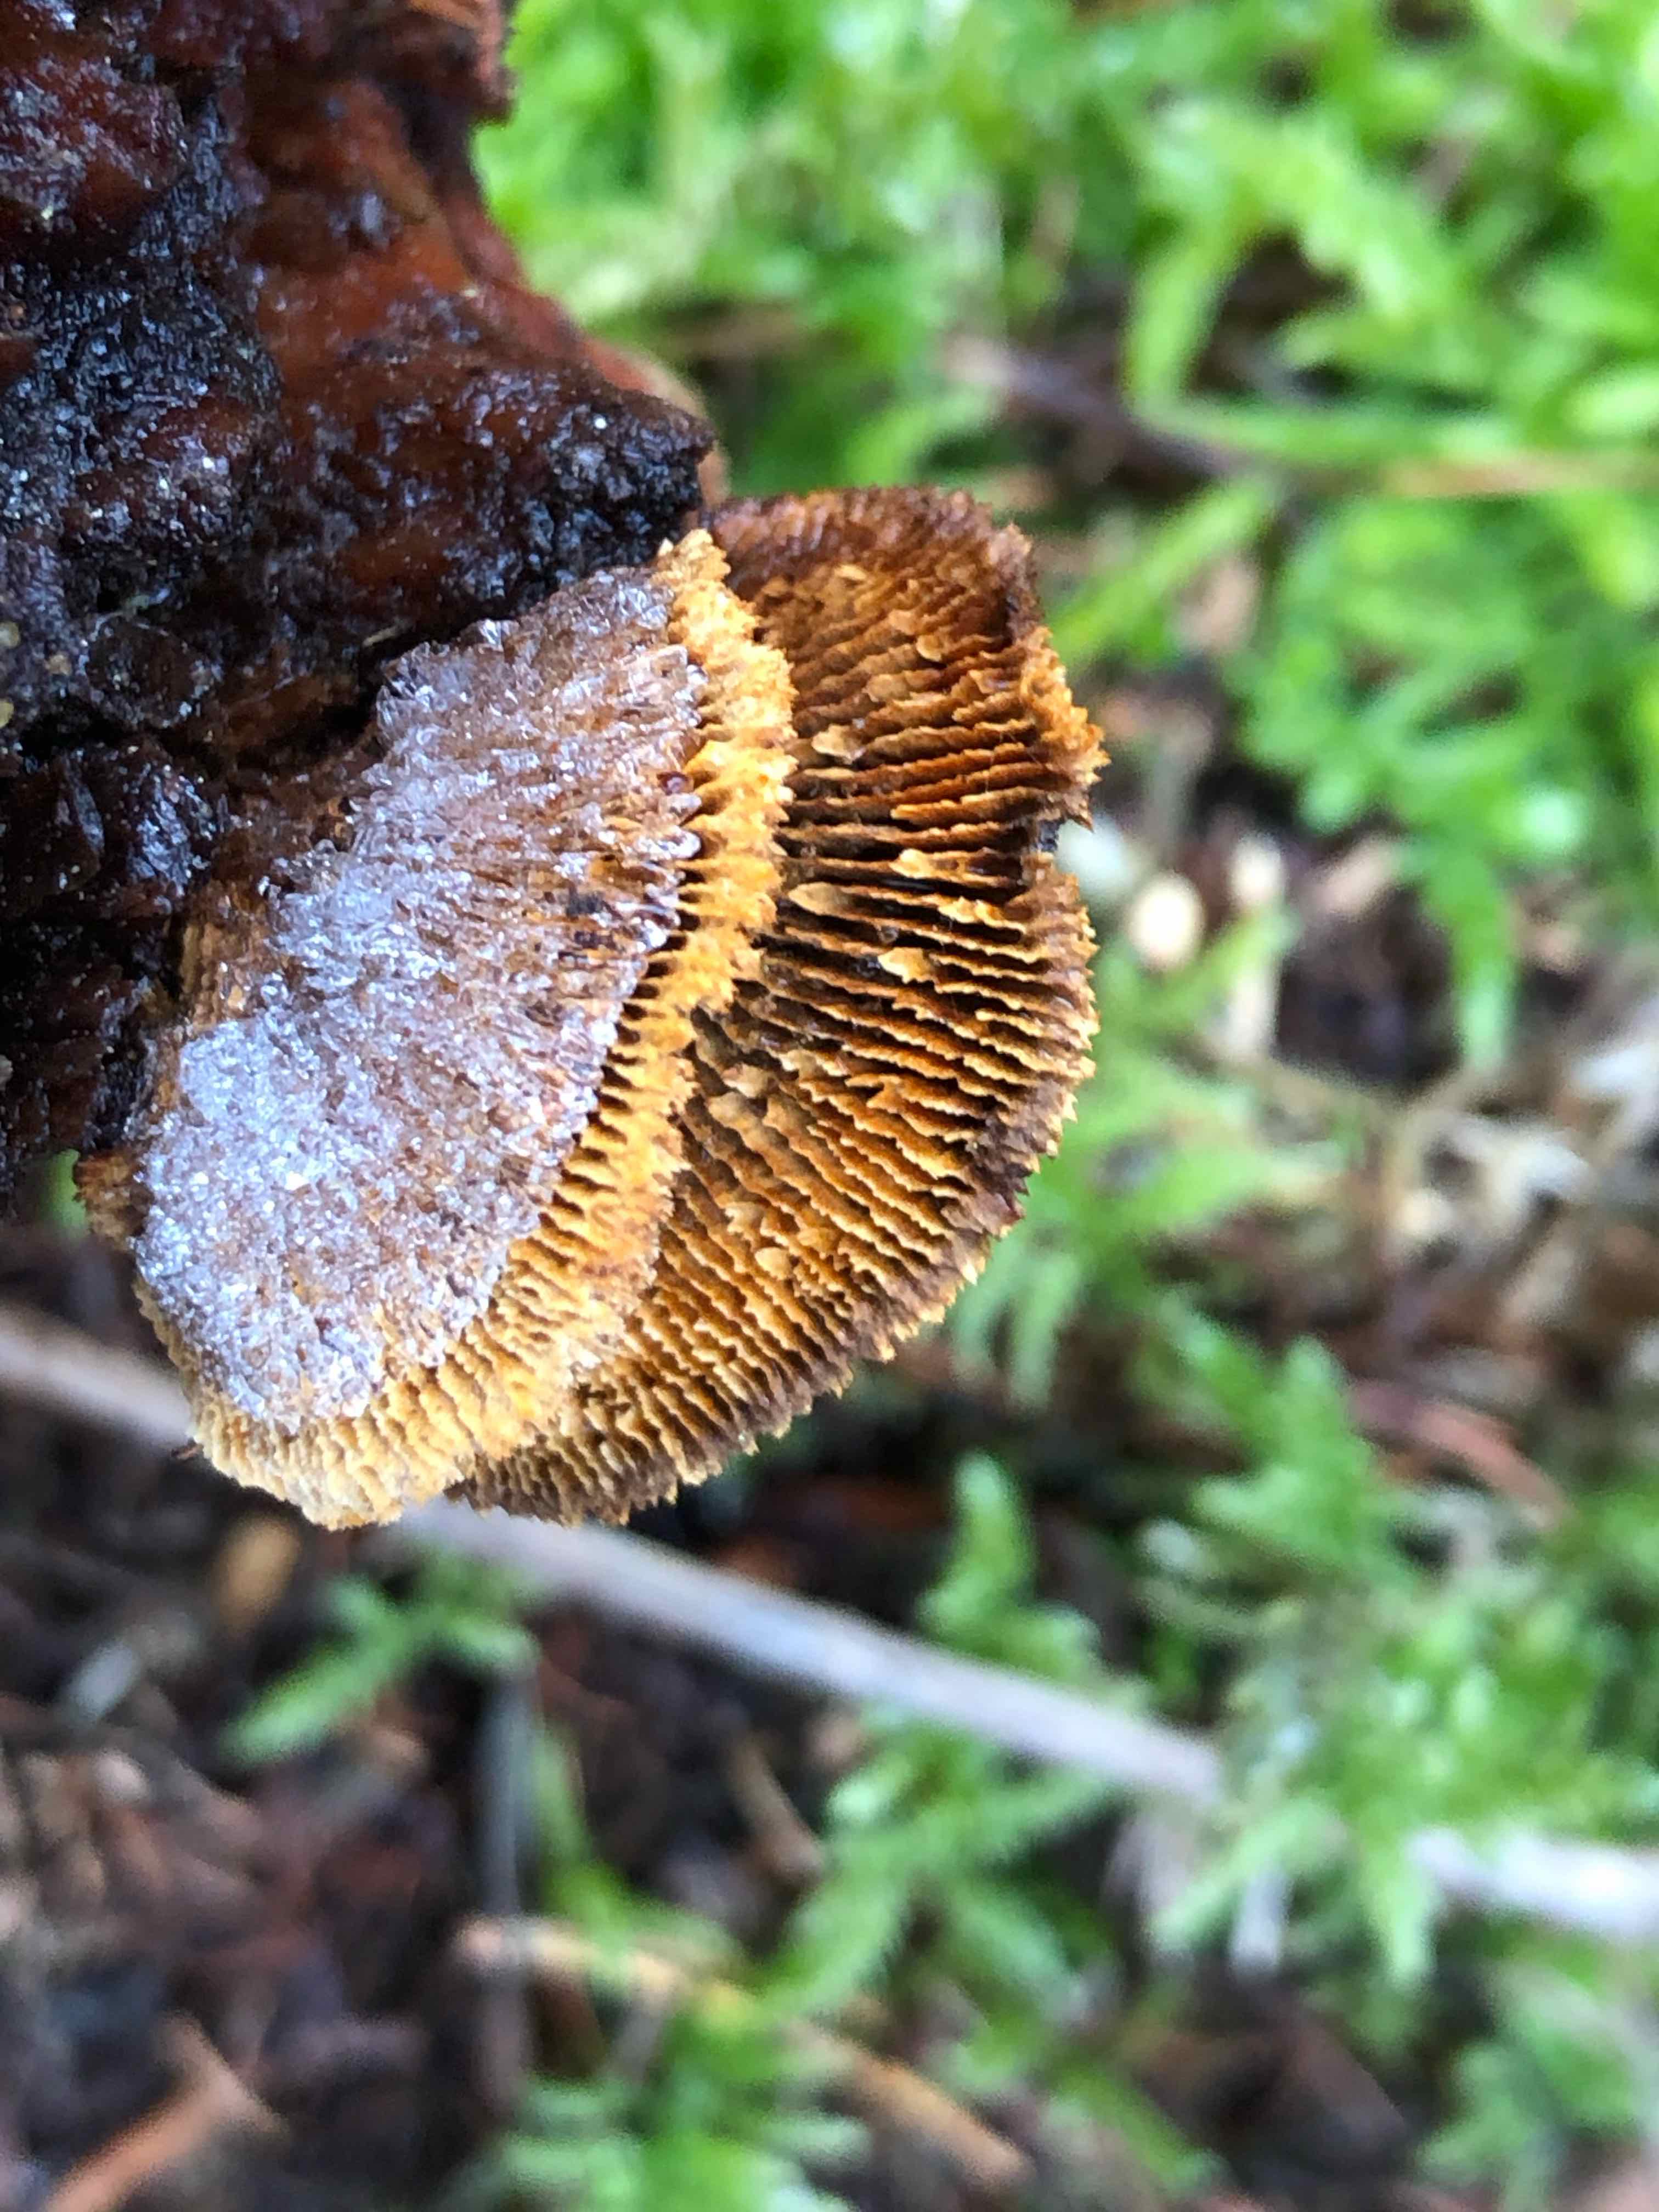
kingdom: Fungi
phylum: Basidiomycota
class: Agaricomycetes
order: Gloeophyllales
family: Gloeophyllaceae
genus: Gloeophyllum
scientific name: Gloeophyllum sepiarium
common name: fyrre-korkhat
